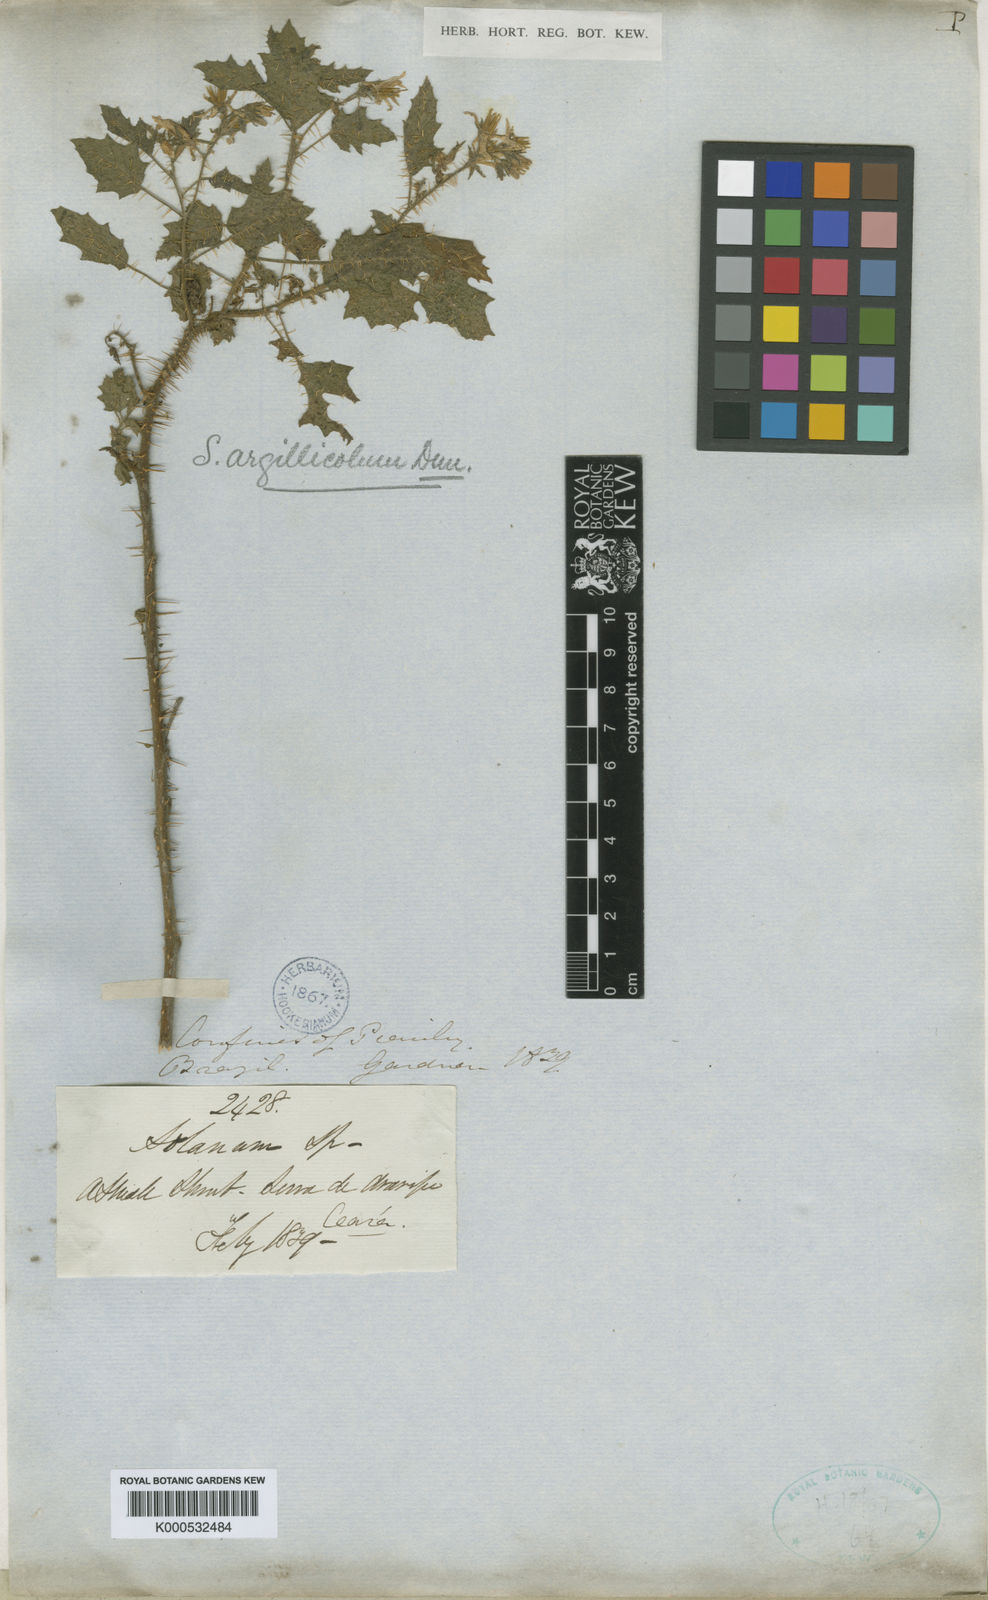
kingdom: Plantae
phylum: Tracheophyta
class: Magnoliopsida
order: Solanales
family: Solanaceae
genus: Solanum
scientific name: Solanum agrarium
